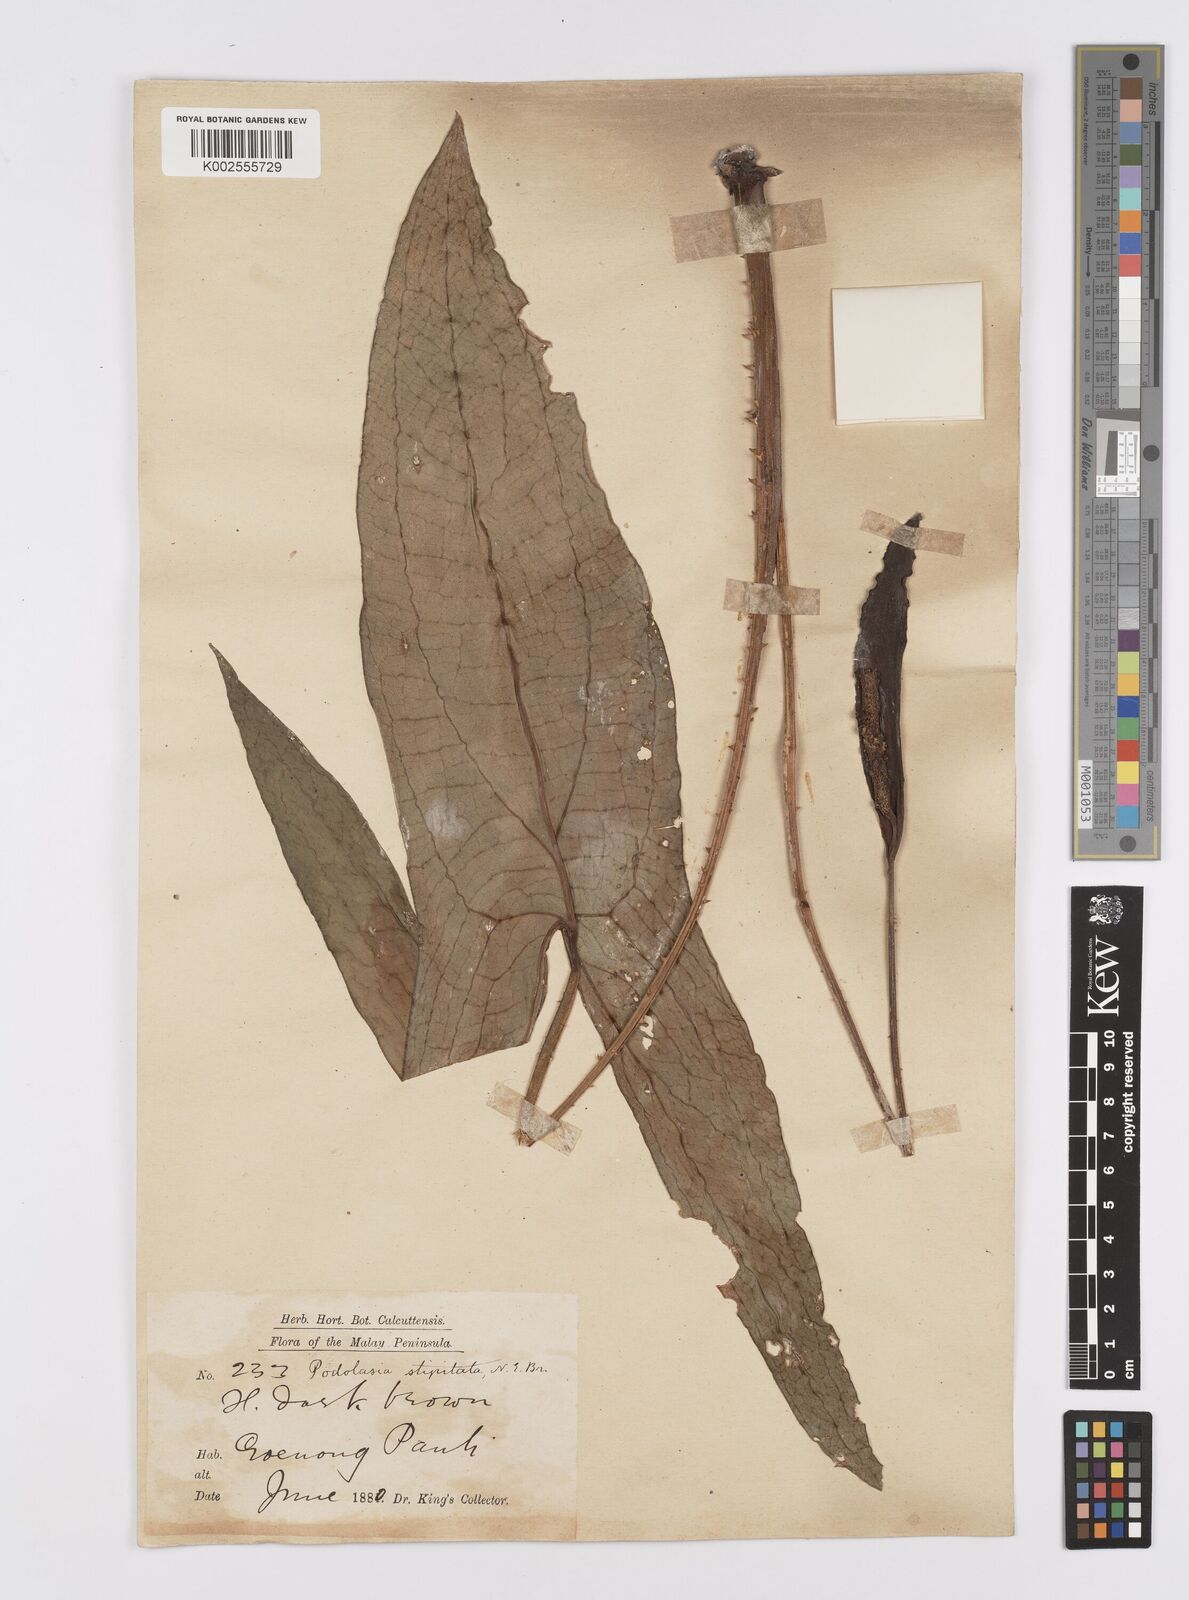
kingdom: Plantae
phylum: Tracheophyta
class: Liliopsida
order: Alismatales
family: Araceae
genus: Podolasia
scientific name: Podolasia stipitata
